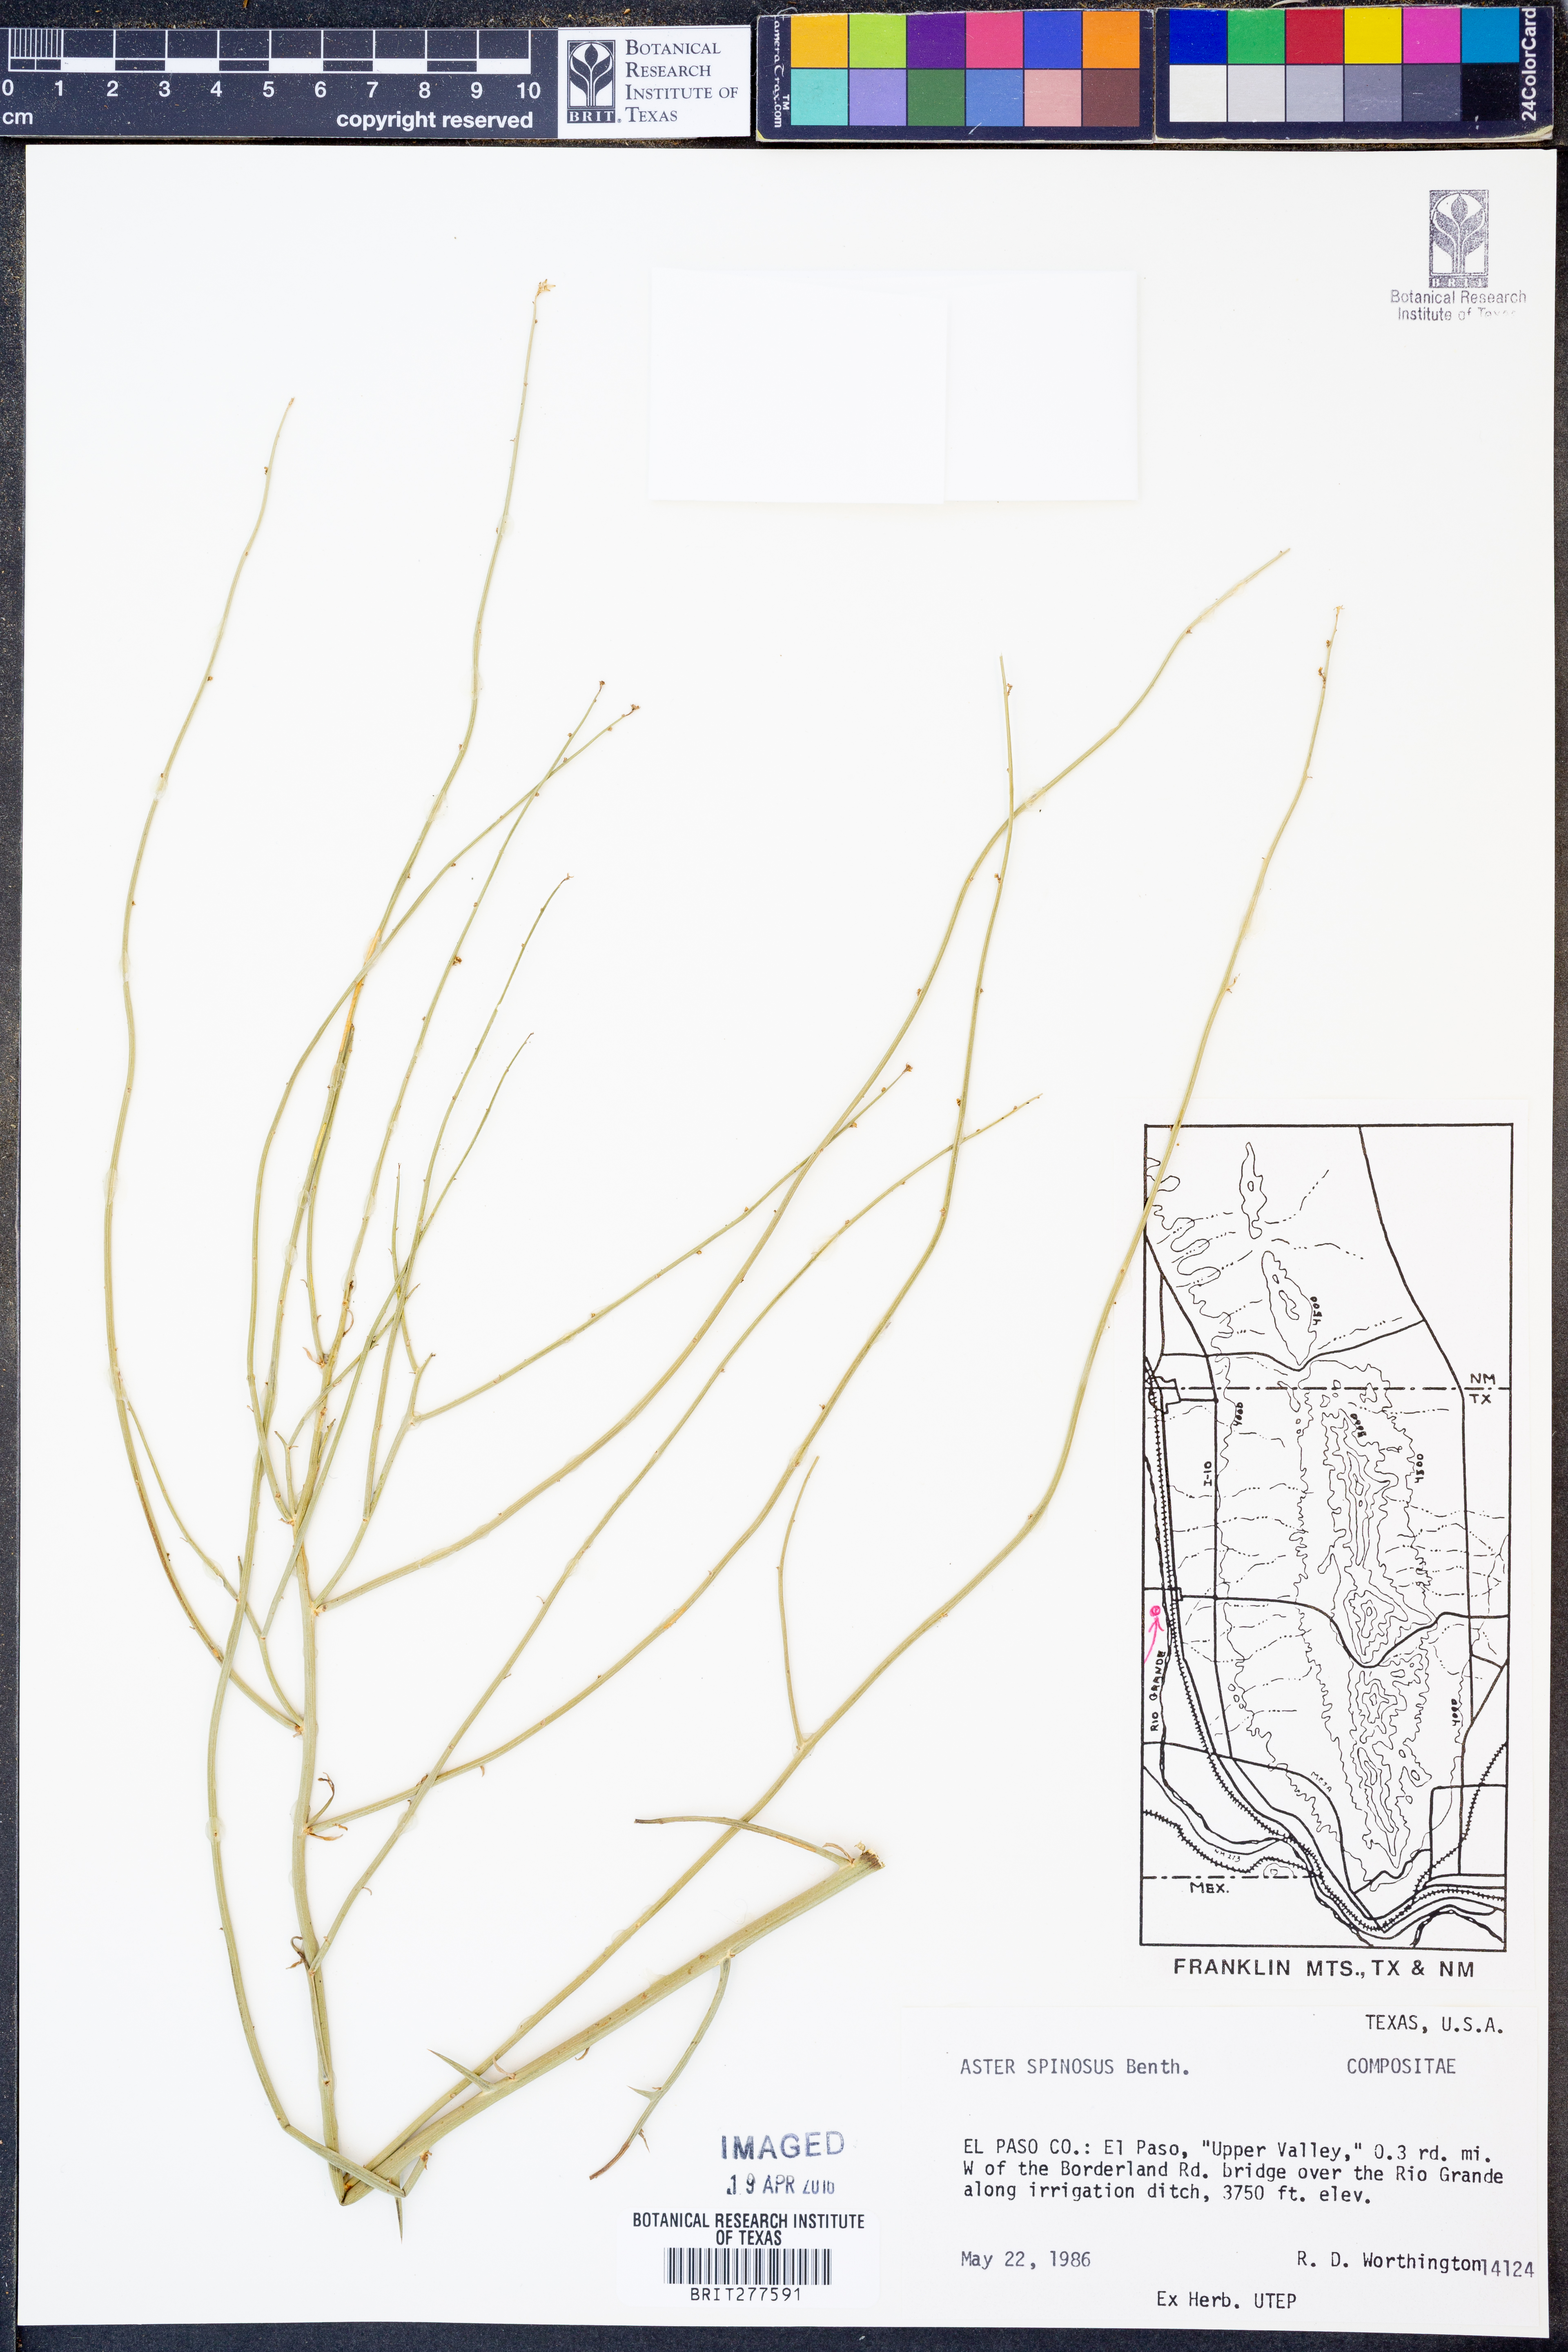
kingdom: Plantae
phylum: Tracheophyta
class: Magnoliopsida
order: Asterales
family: Asteraceae
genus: Chloracantha
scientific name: Chloracantha spinosa
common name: Mexican devilweed
